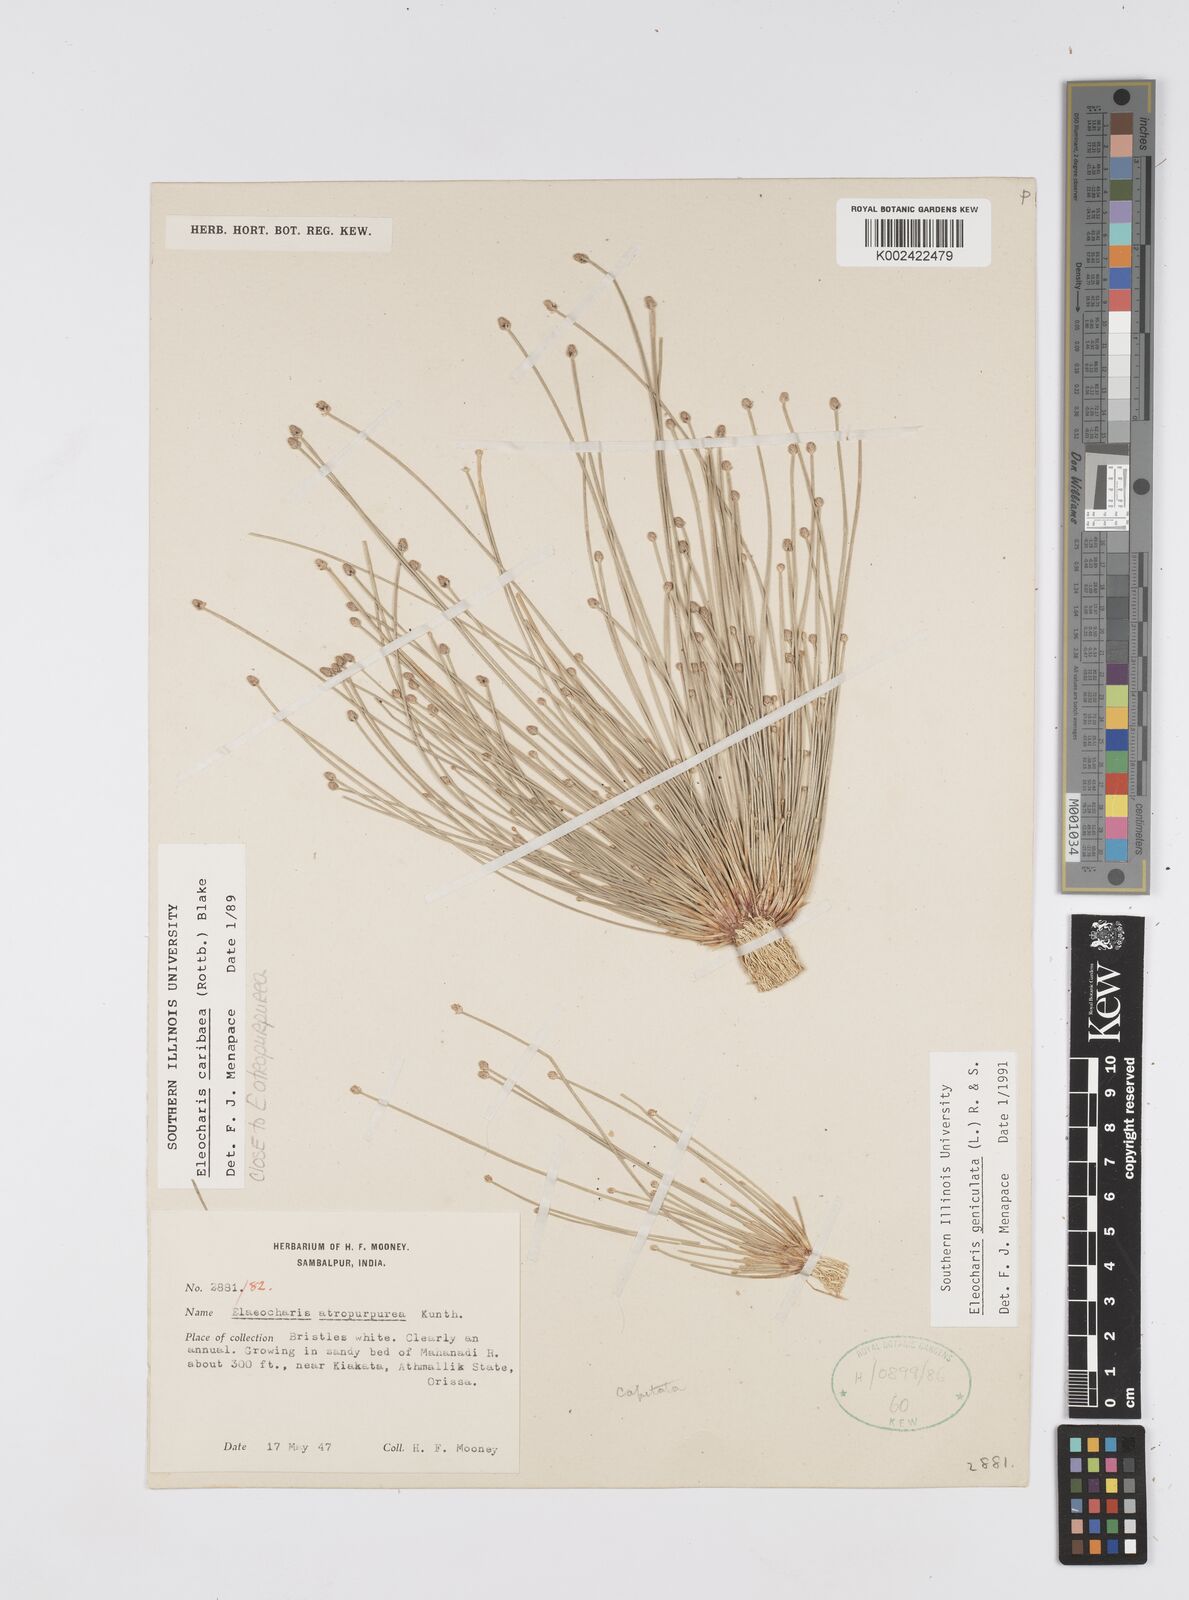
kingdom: Plantae
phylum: Tracheophyta
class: Liliopsida
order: Poales
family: Cyperaceae
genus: Eleocharis
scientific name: Eleocharis geniculata
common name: Canada spikesedge
